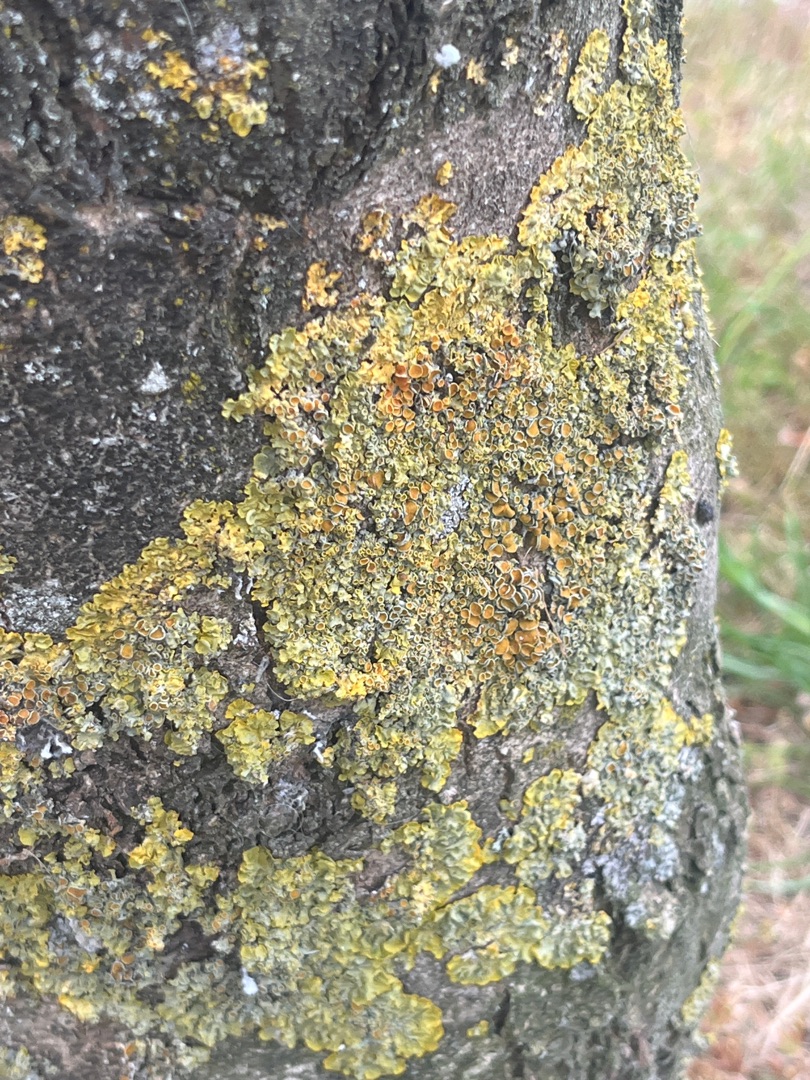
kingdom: Fungi
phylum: Ascomycota
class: Lecanoromycetes
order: Teloschistales
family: Teloschistaceae
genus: Xanthoria
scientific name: Xanthoria parietina
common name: Almindelig væggelav
